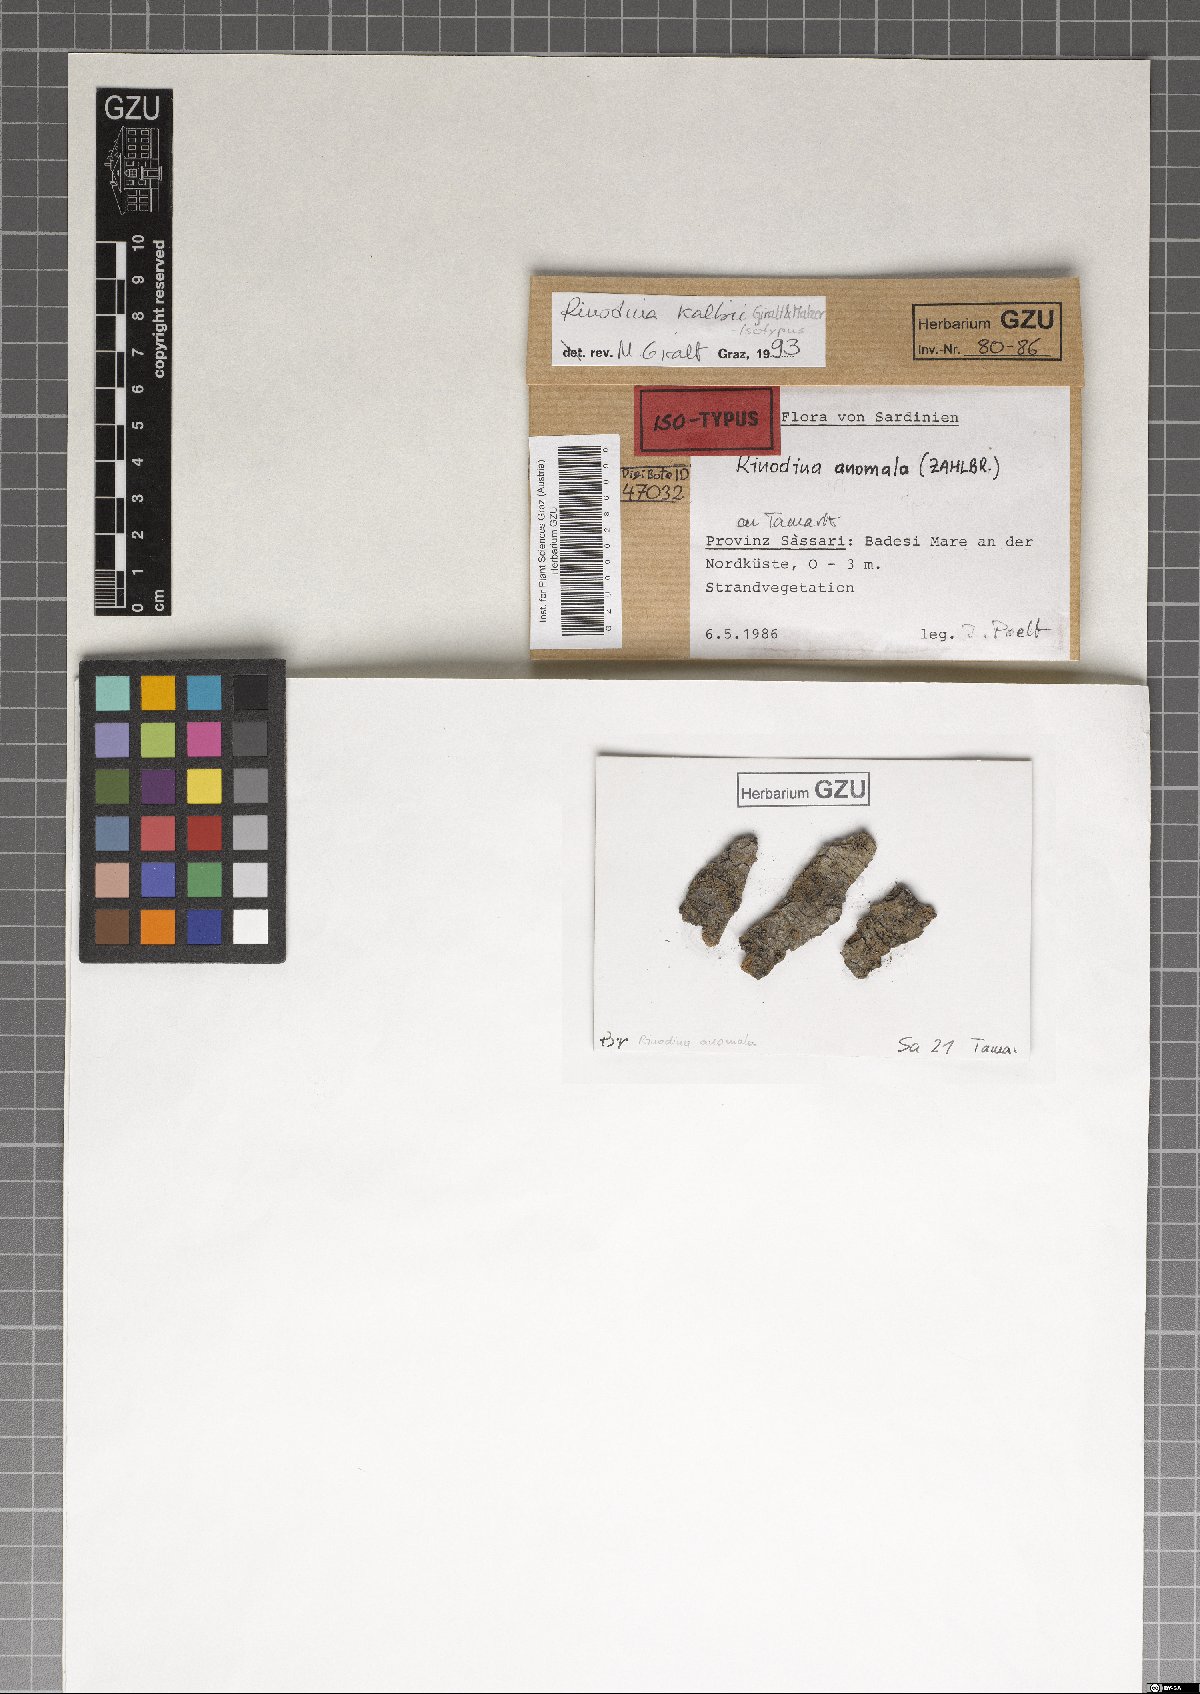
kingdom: Fungi
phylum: Ascomycota
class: Lecanoromycetes
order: Caliciales
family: Caliciaceae
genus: Endohyalina
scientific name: Endohyalina kalbii
